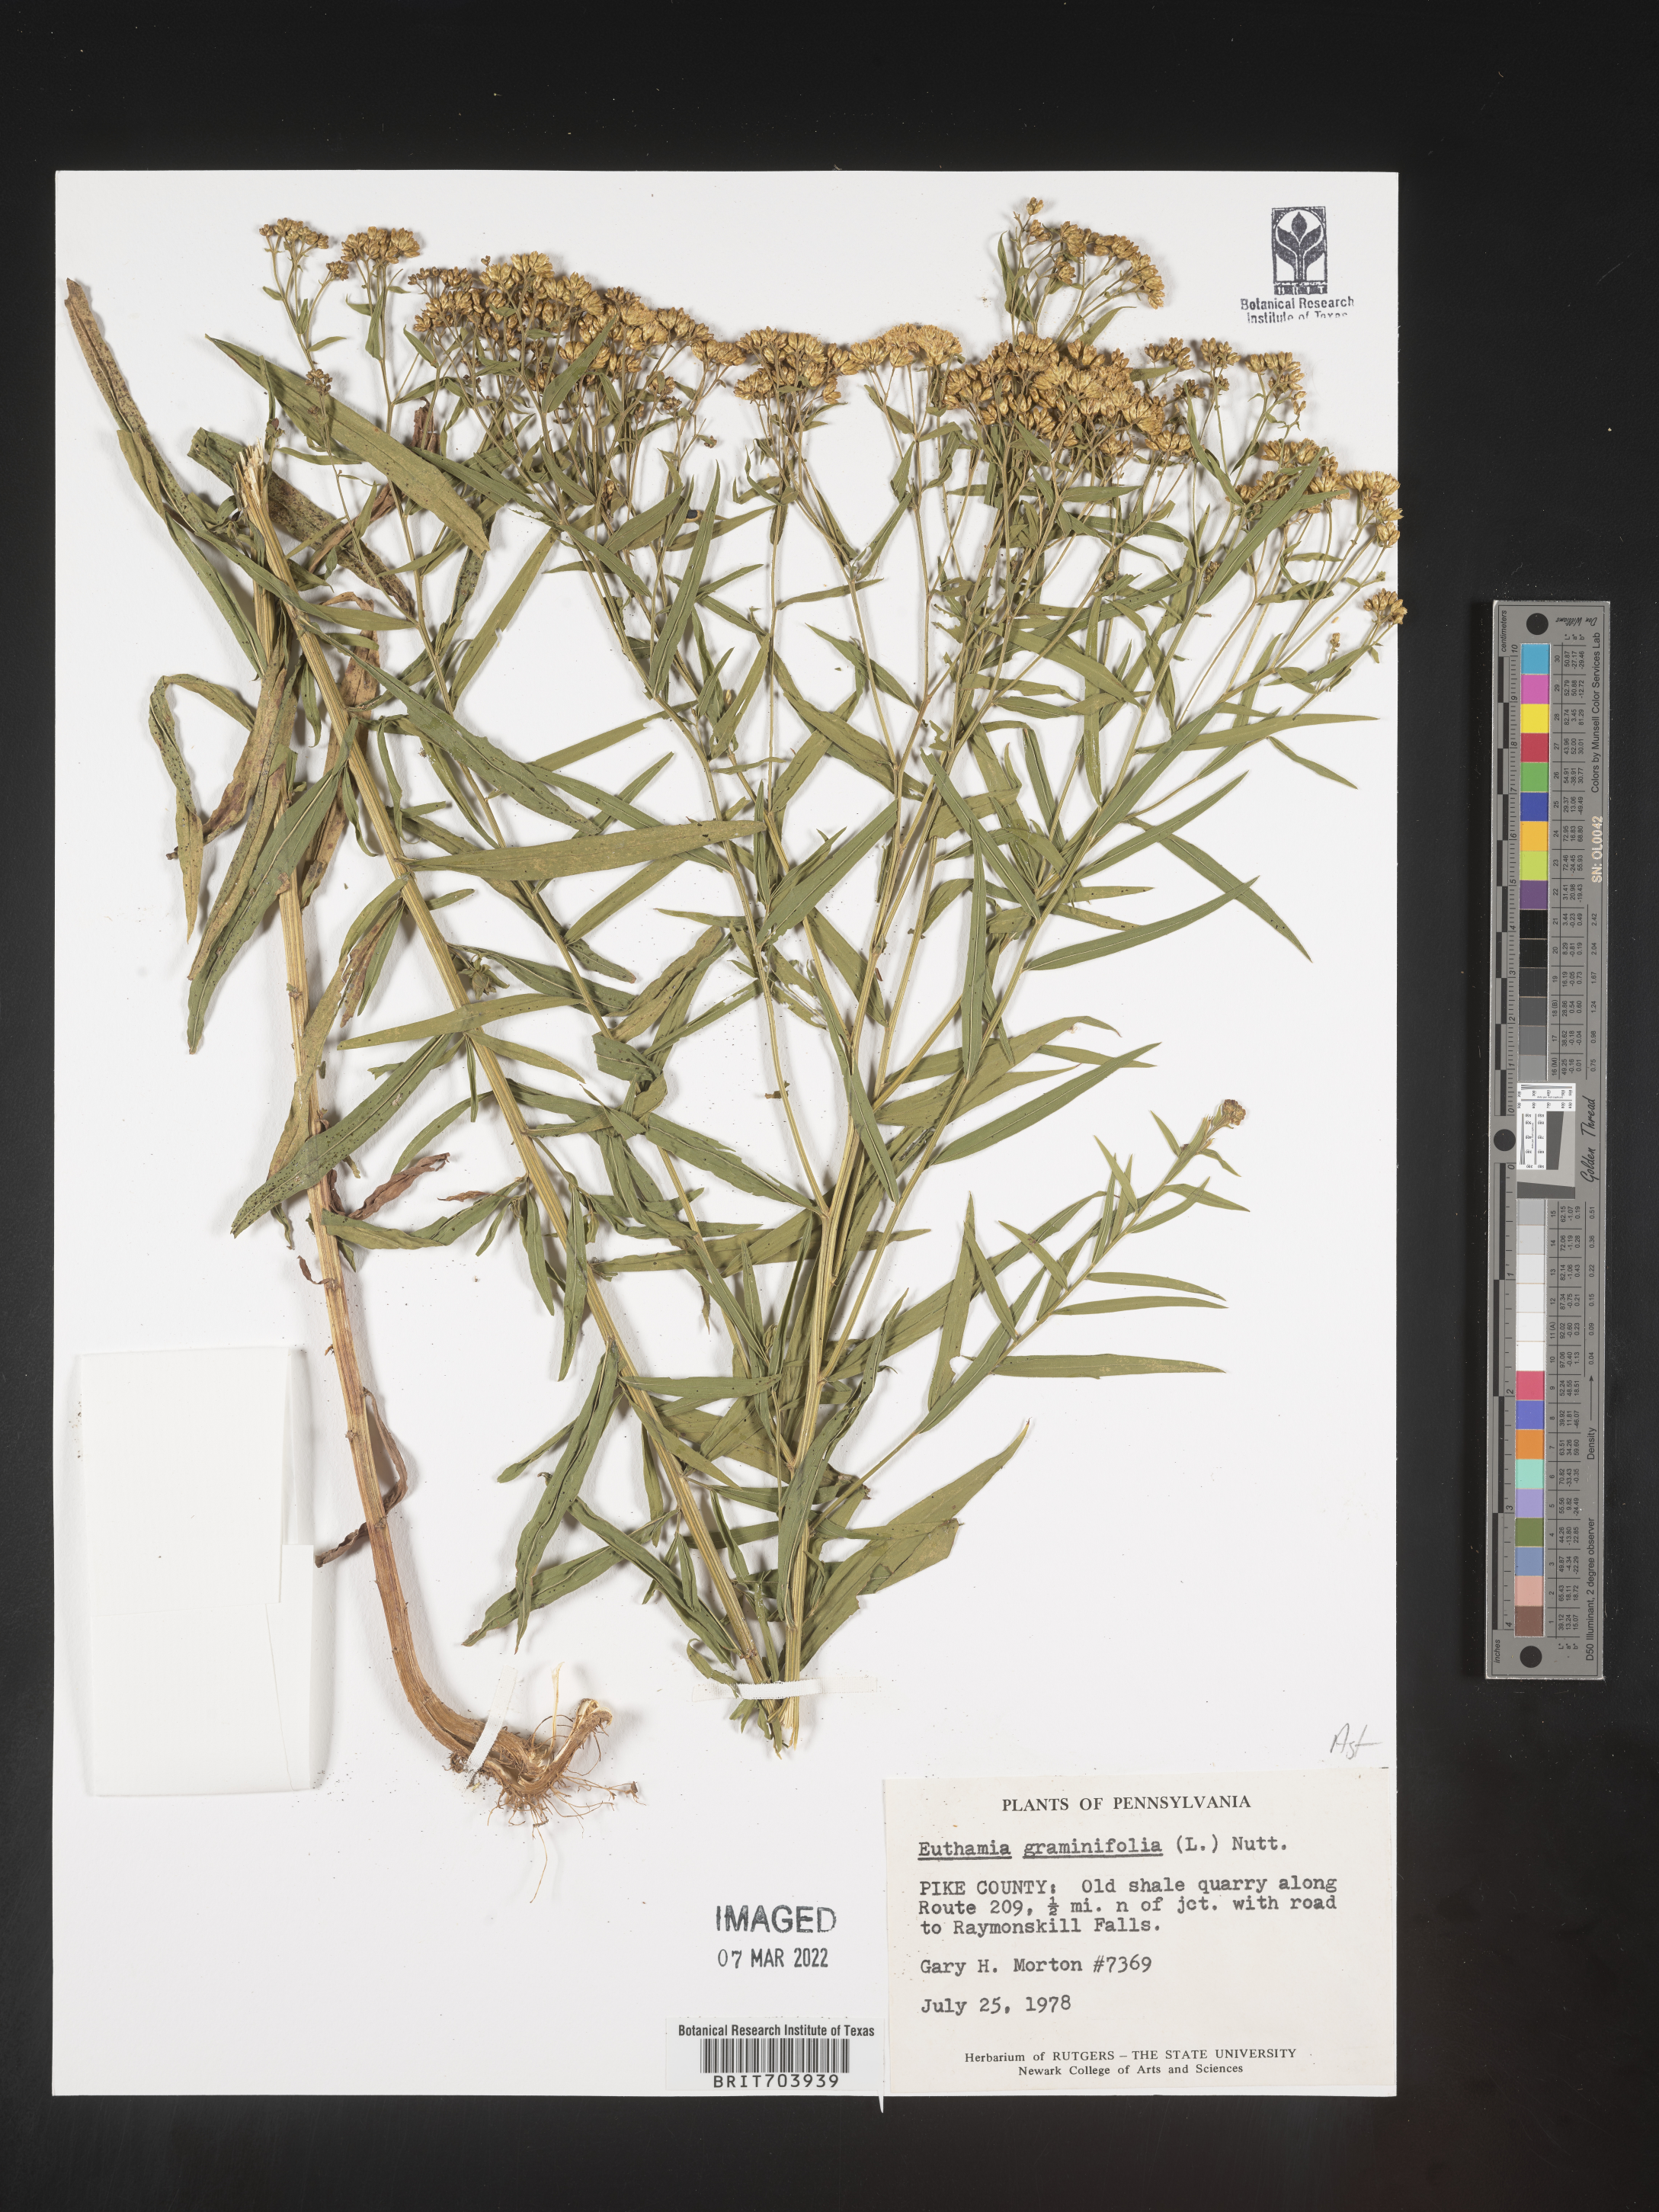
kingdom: Plantae
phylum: Tracheophyta
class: Magnoliopsida
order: Asterales
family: Asteraceae
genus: Euthamia
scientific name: Euthamia graminifolia
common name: Common goldentop
